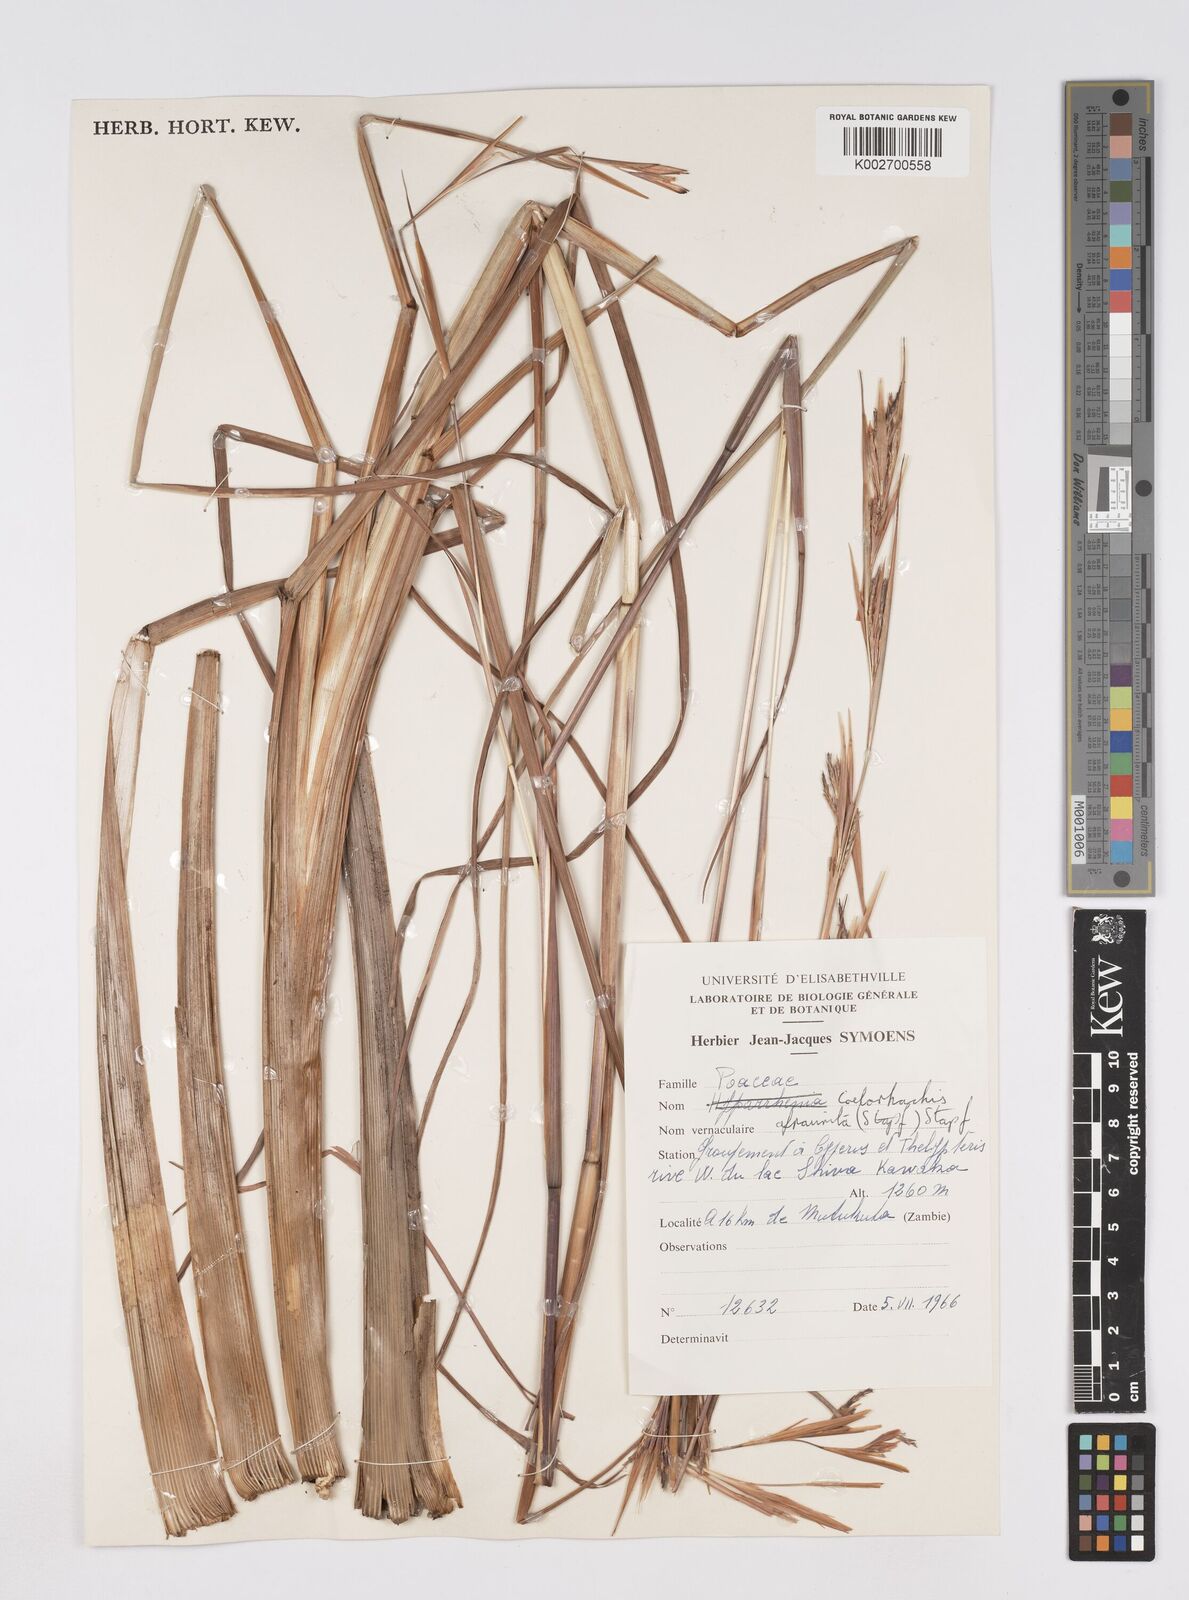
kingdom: Plantae
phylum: Tracheophyta
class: Liliopsida
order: Poales
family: Poaceae
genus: Rottboellia
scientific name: Rottboellia afraurita
